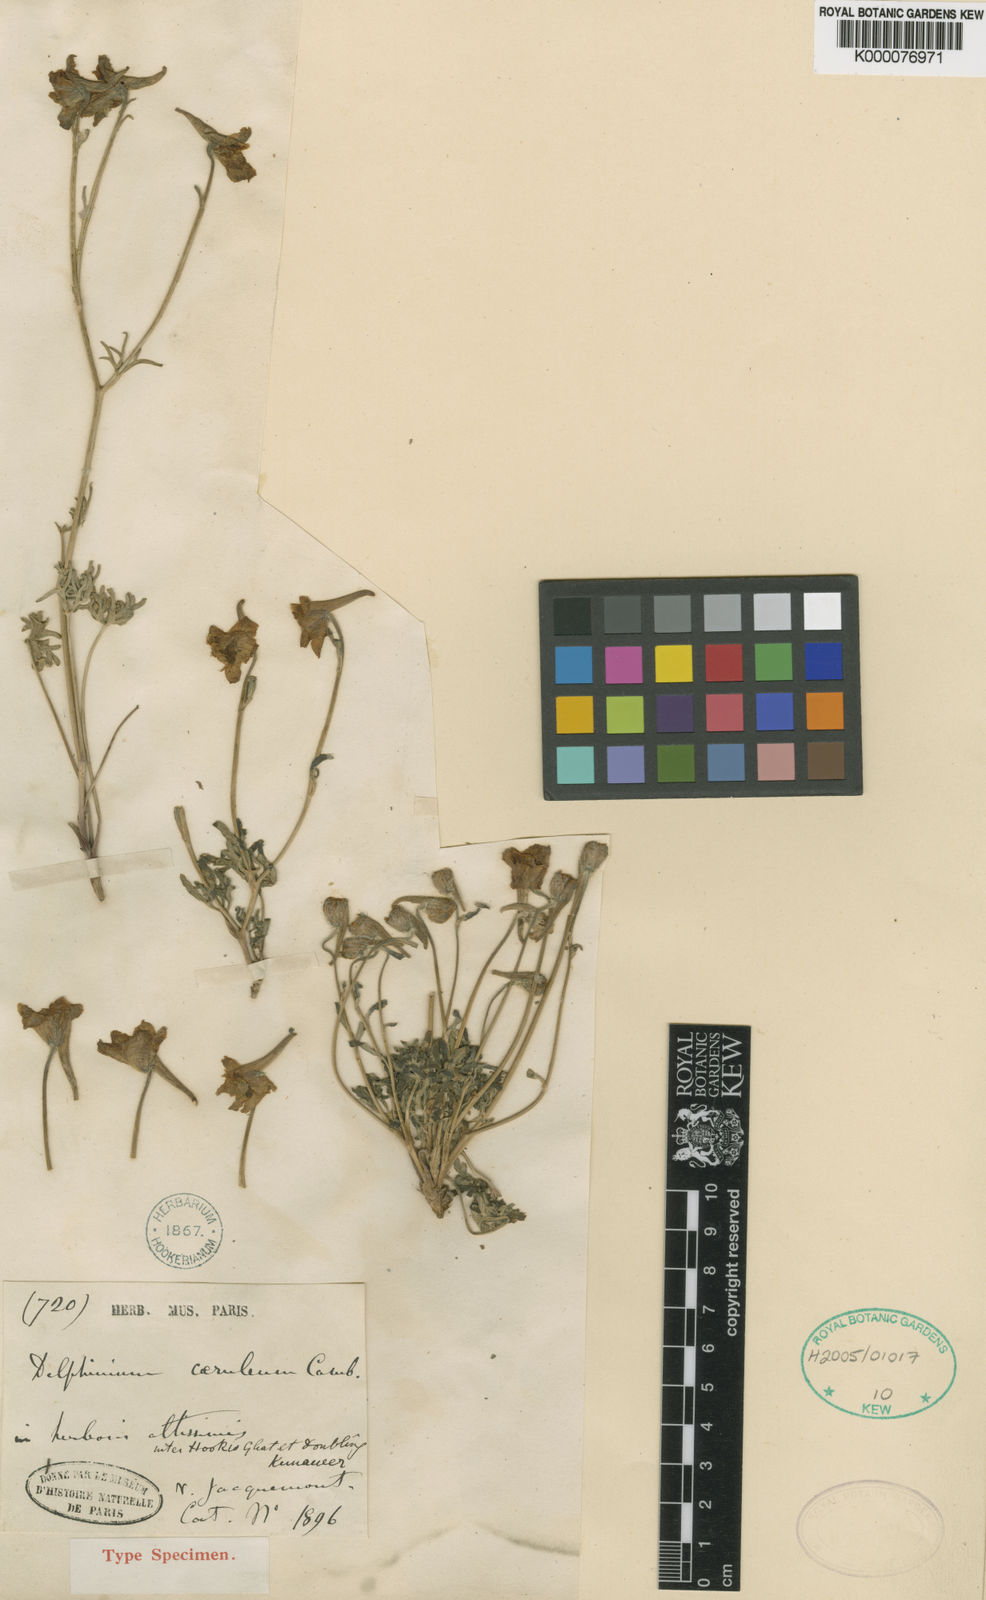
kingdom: Plantae
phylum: Tracheophyta
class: Magnoliopsida
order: Ranunculales
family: Ranunculaceae
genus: Delphinium
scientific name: Delphinium caeruleum
